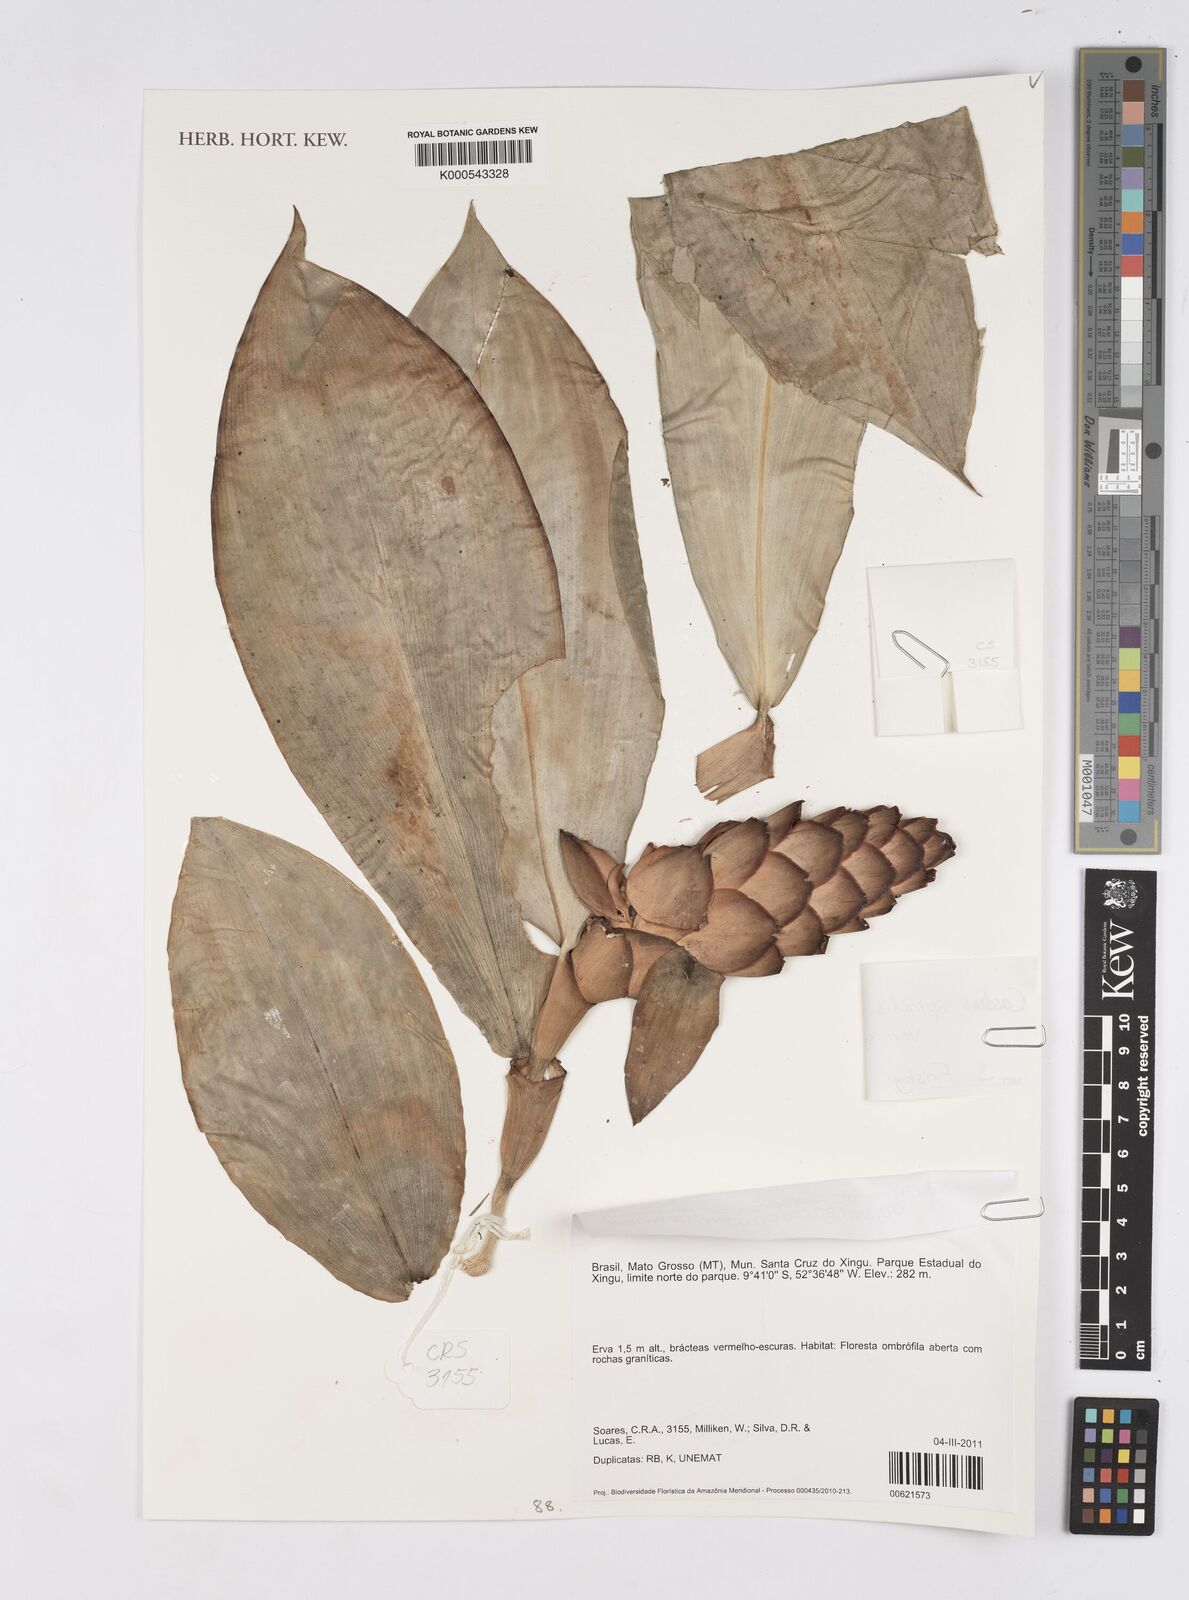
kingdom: Plantae
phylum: Tracheophyta
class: Liliopsida
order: Zingiberales
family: Costaceae
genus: Costus
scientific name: Costus spiralis
